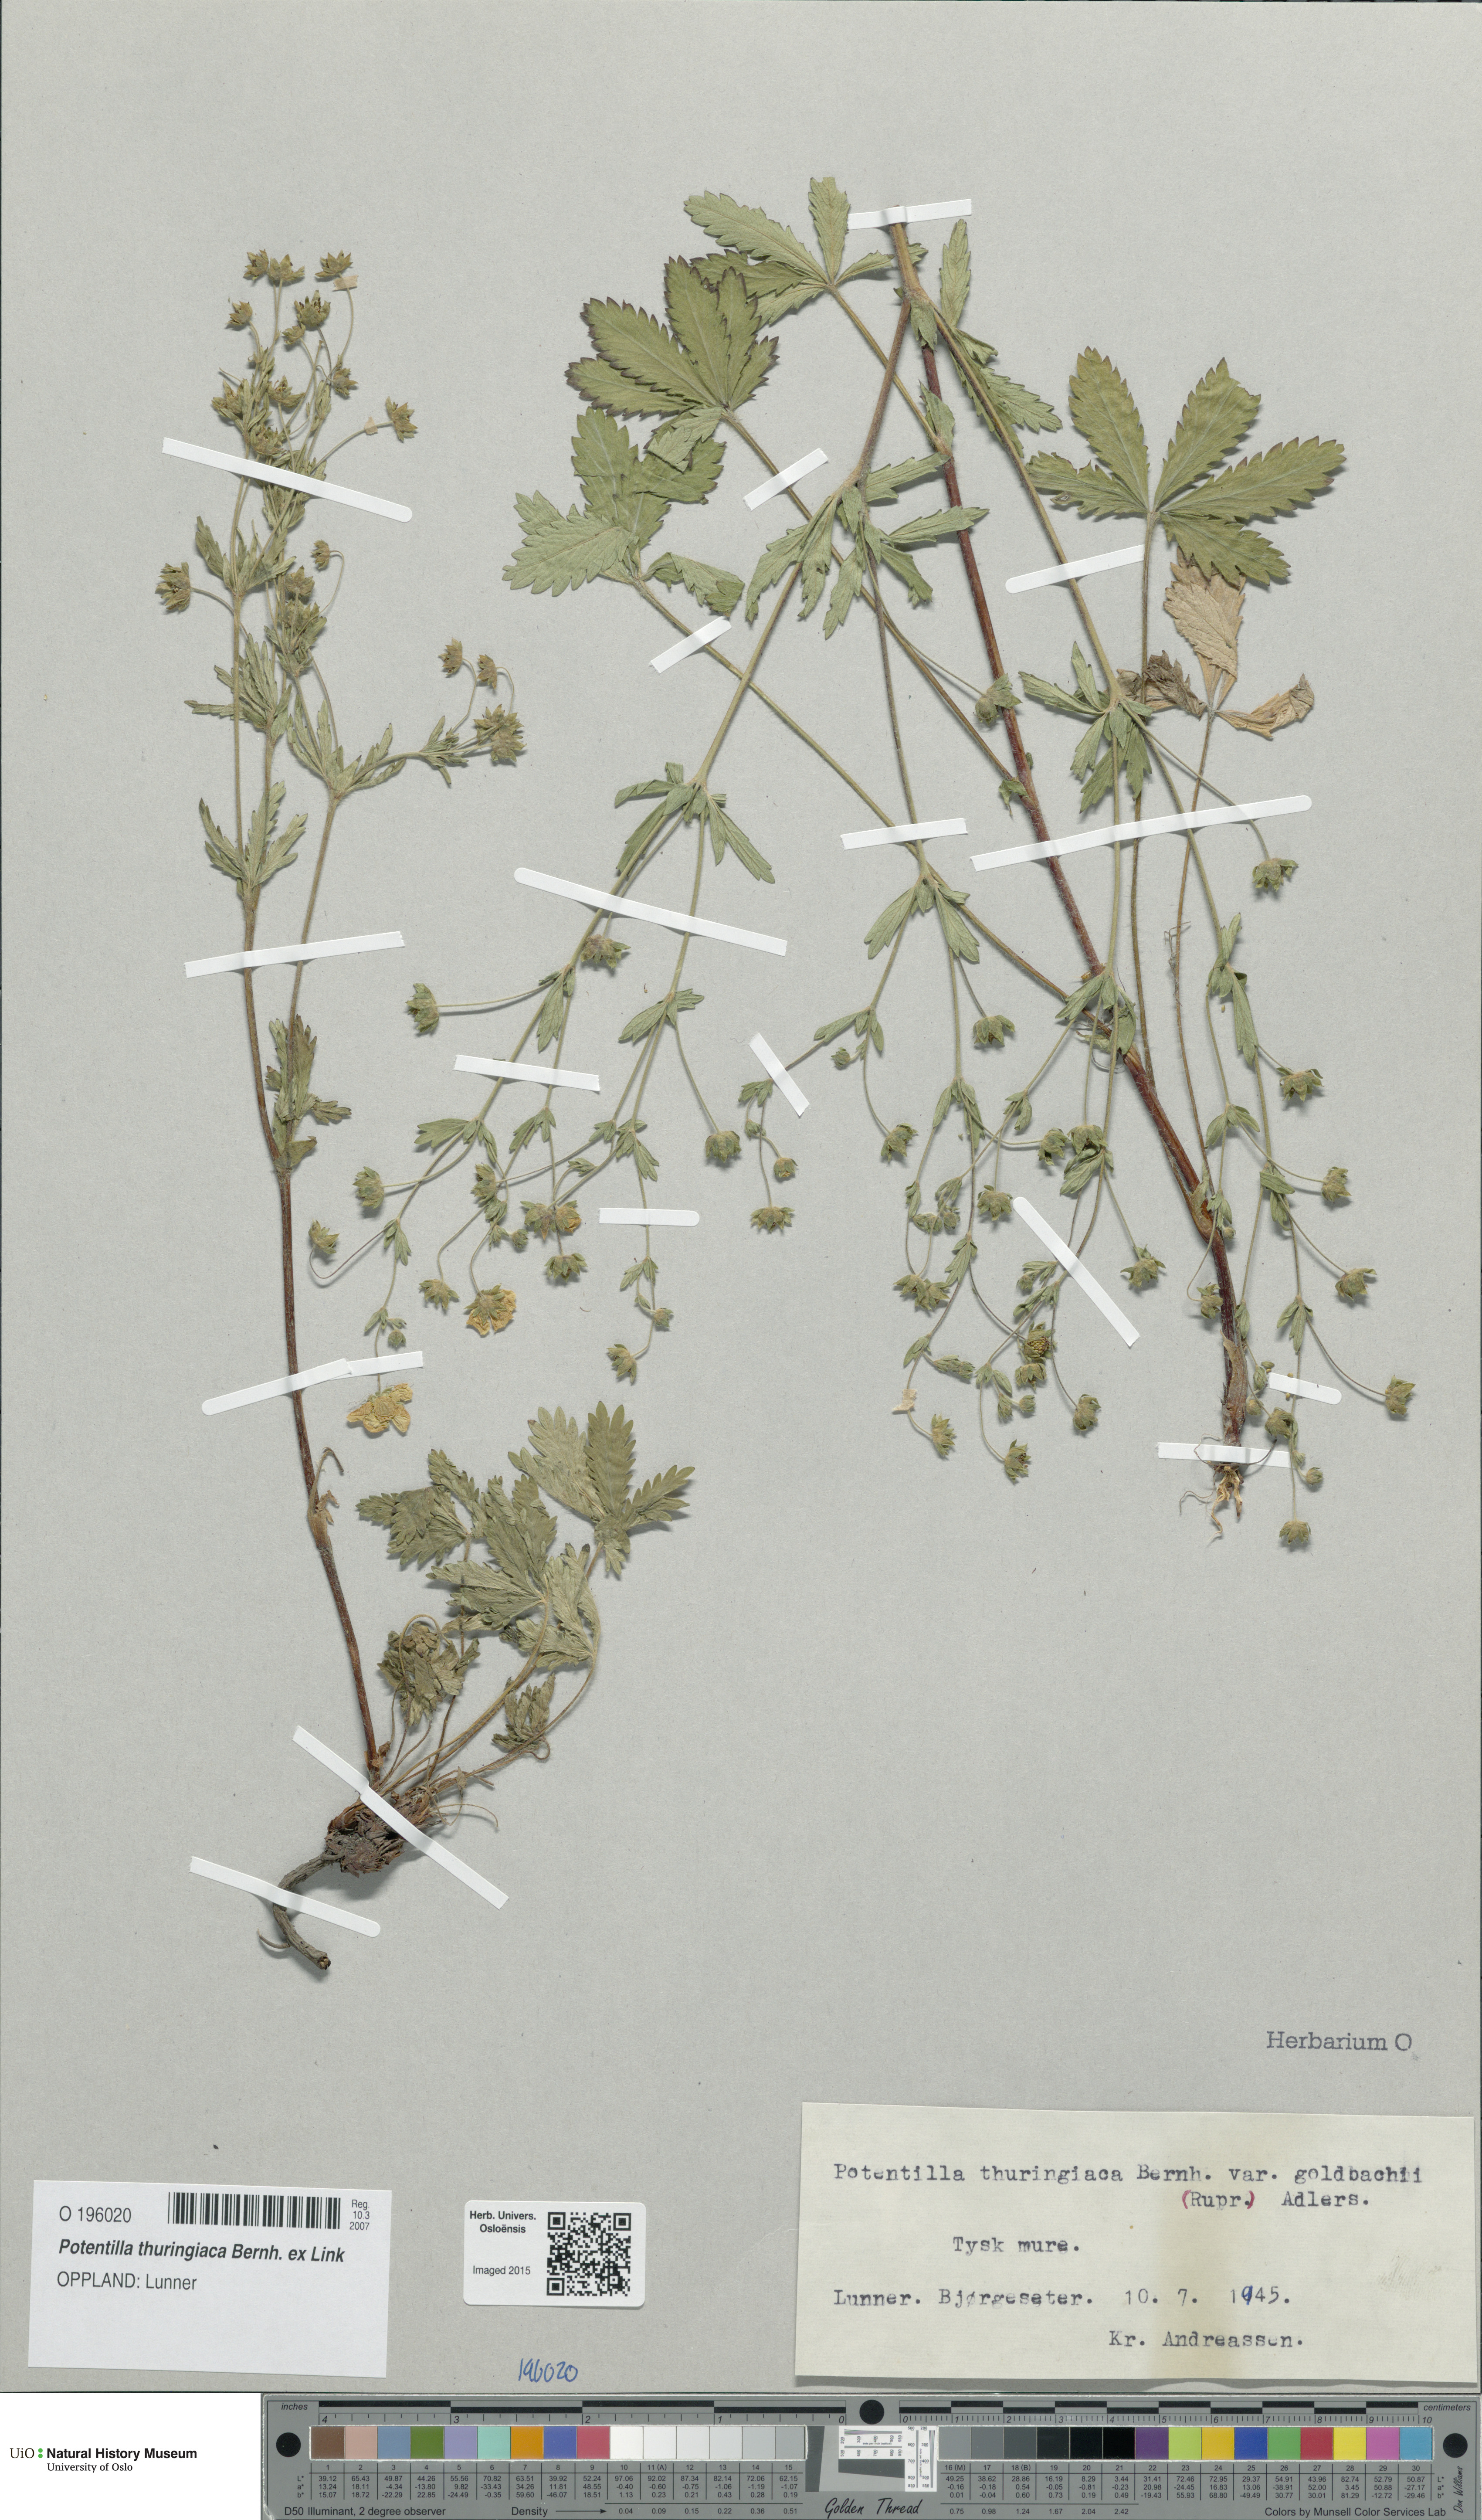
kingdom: Plantae
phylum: Tracheophyta
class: Magnoliopsida
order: Rosales
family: Rosaceae
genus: Potentilla
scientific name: Potentilla thuringiaca
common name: European cinquefoil
